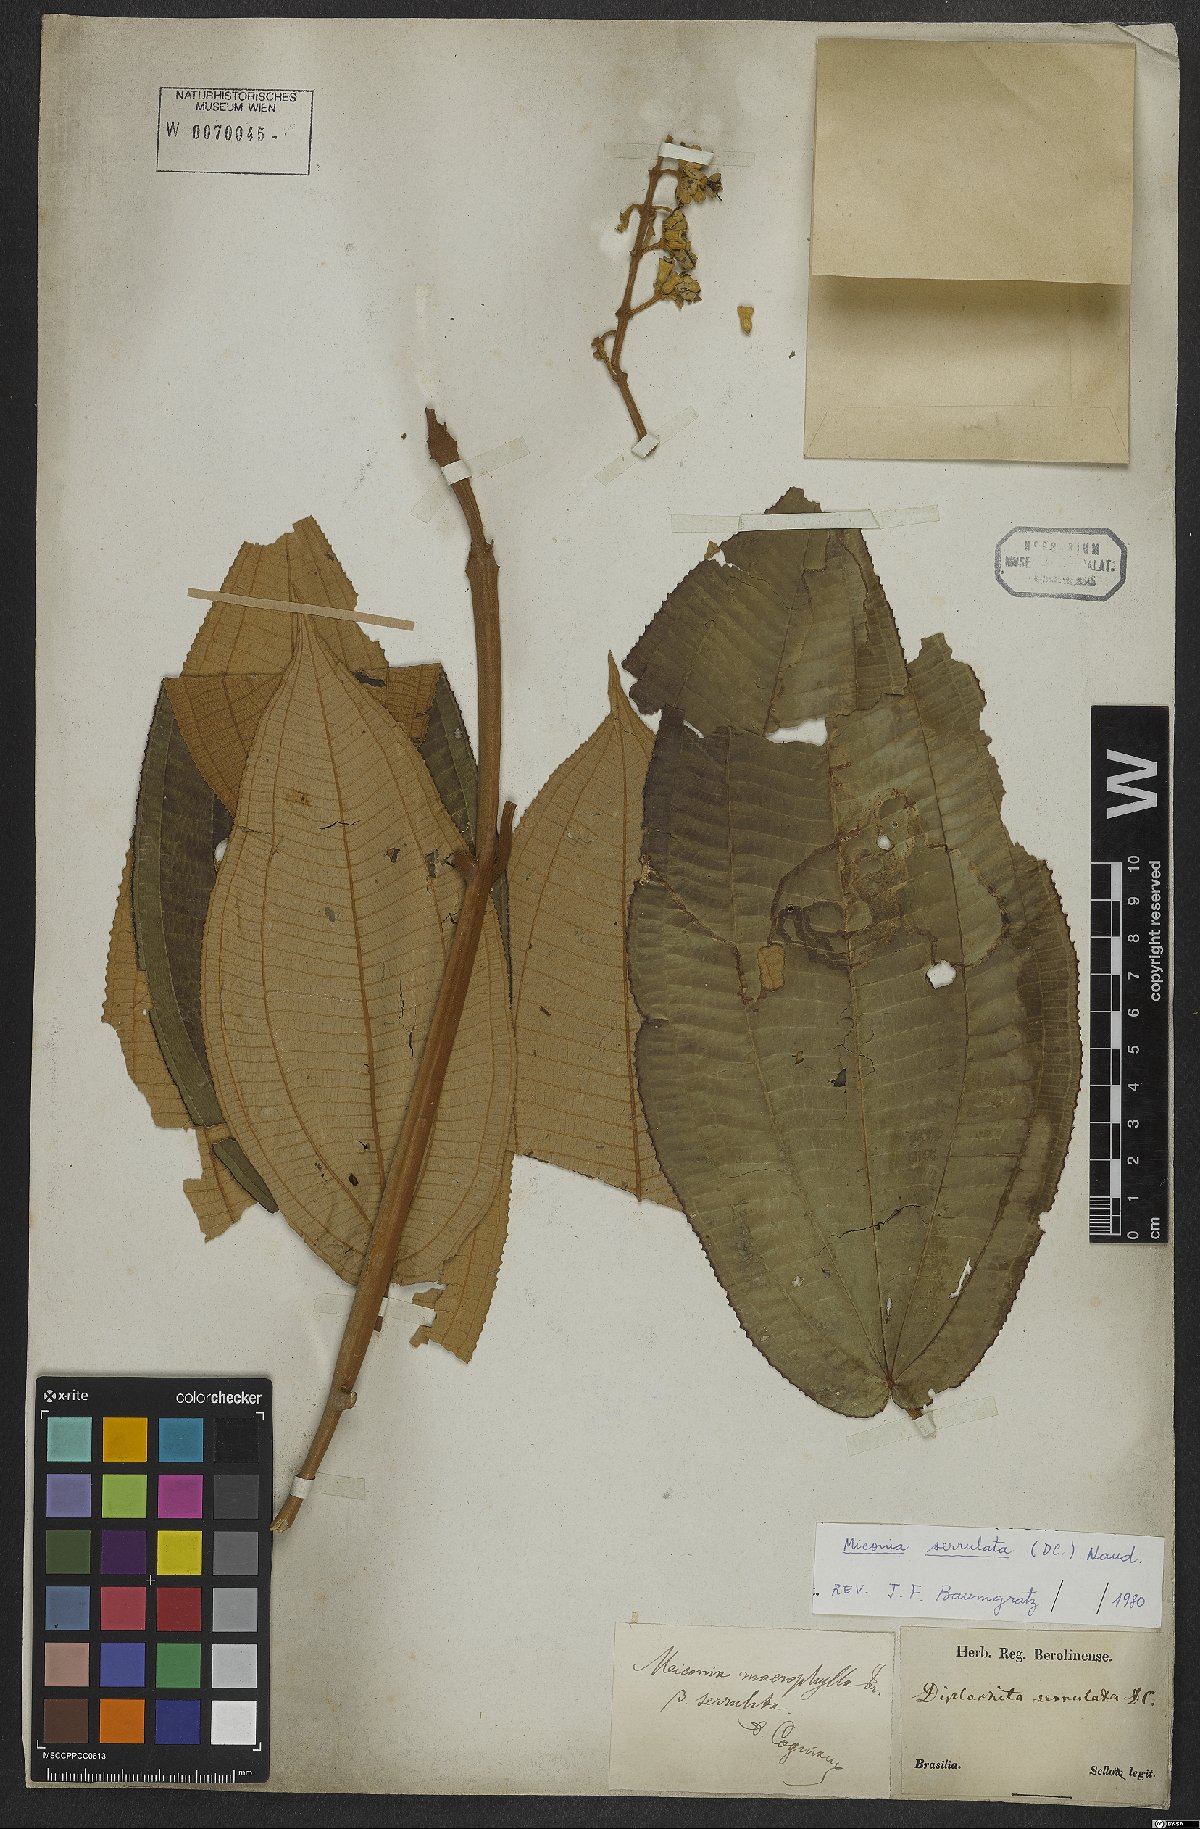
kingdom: Plantae
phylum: Tracheophyta
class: Magnoliopsida
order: Myrtales
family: Melastomataceae
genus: Miconia
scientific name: Miconia serrulata
